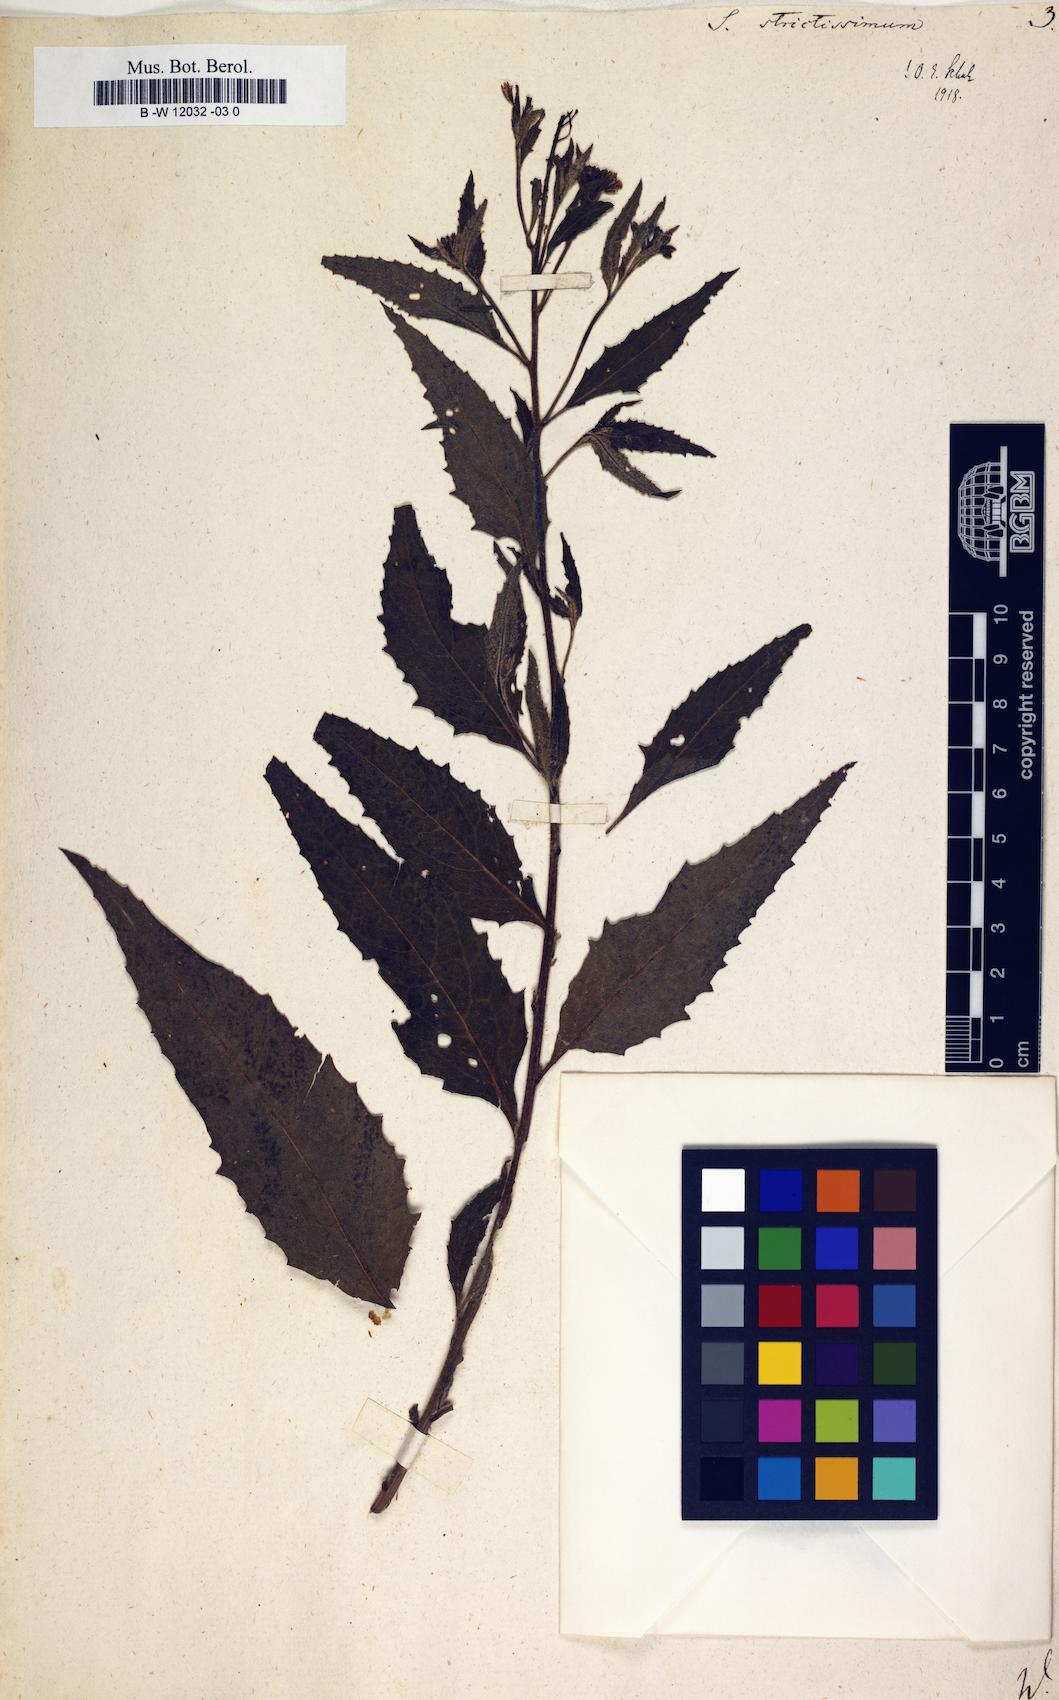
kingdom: Plantae
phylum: Tracheophyta
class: Magnoliopsida
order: Brassicales
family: Brassicaceae
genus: Sisymbrium
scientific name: Sisymbrium strictissimum
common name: Perennial rocket
